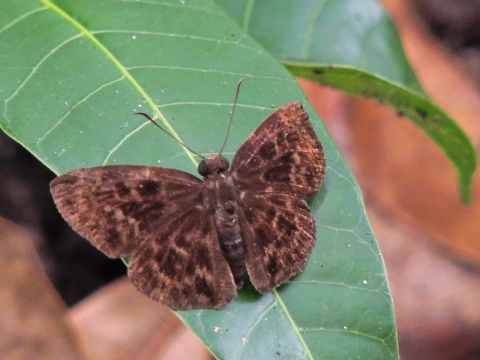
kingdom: Animalia
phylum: Arthropoda
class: Insecta
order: Lepidoptera
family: Hesperiidae
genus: Ouleus
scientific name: Ouleus fridericus
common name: Fridericus Spreadwing
